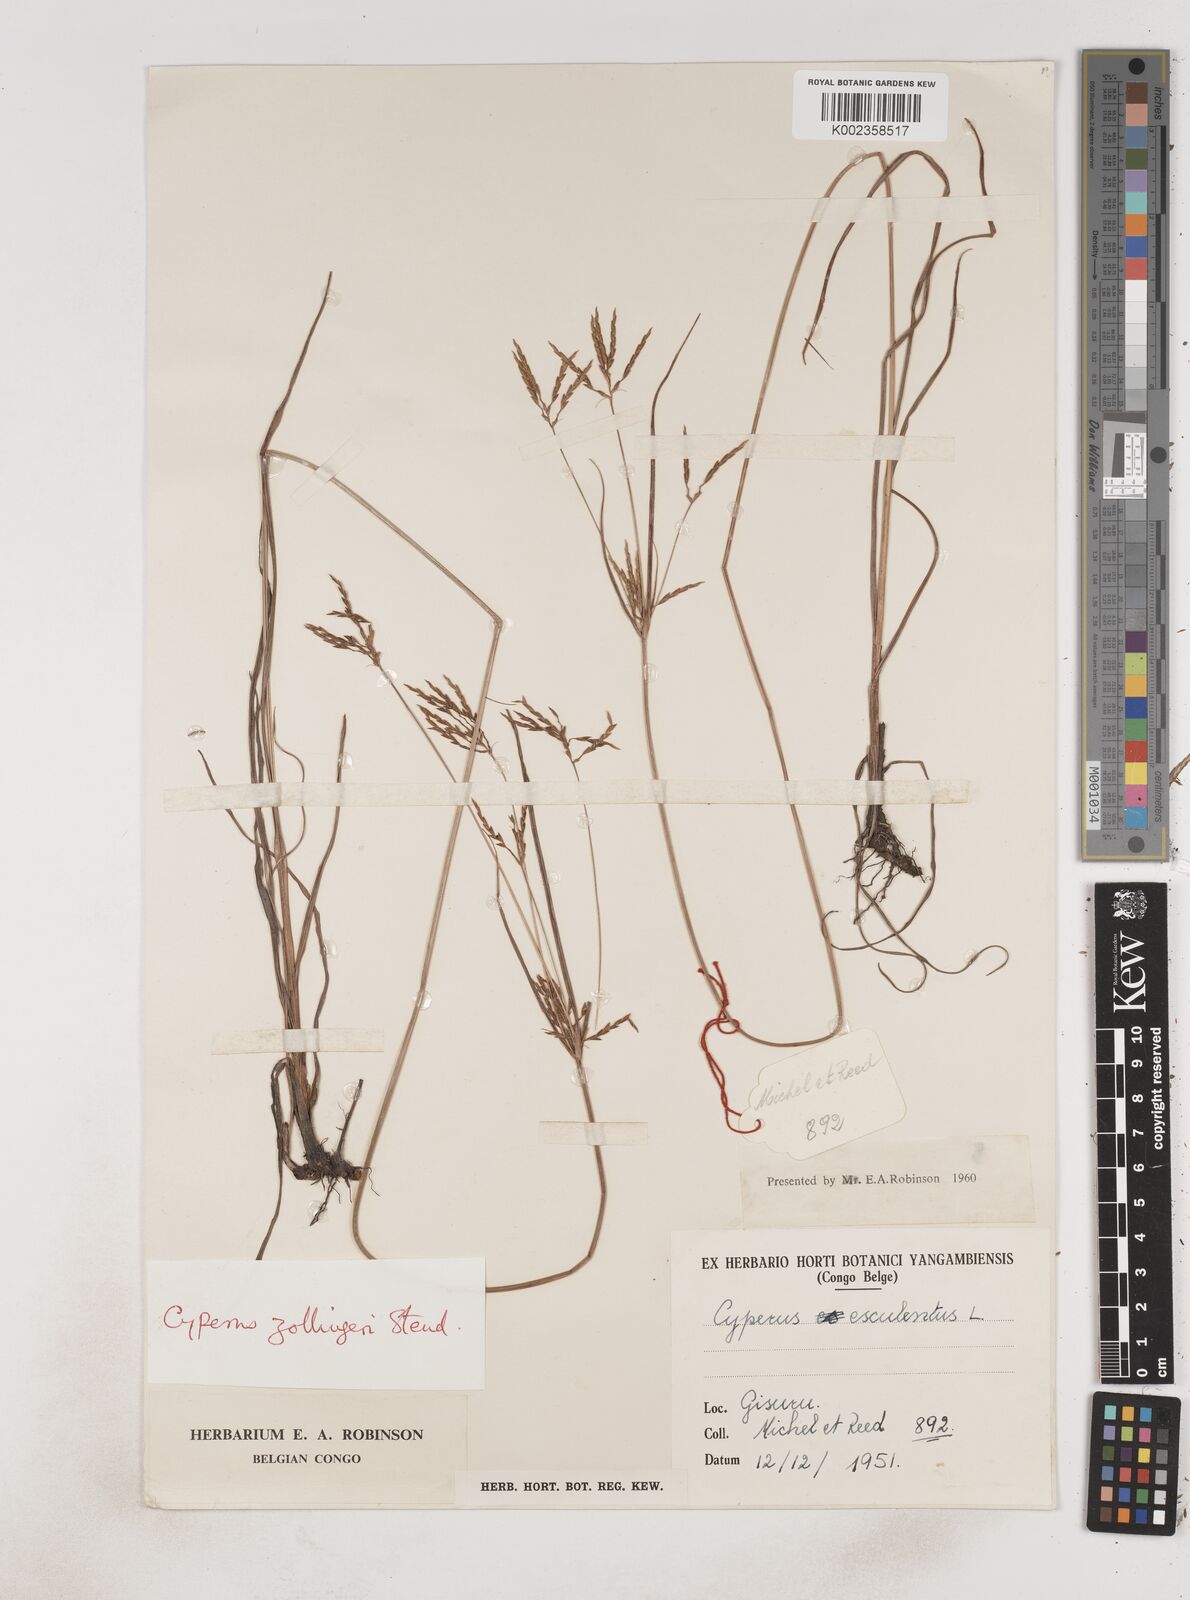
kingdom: Plantae
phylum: Tracheophyta
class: Liliopsida
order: Poales
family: Cyperaceae
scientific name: Cyperaceae
